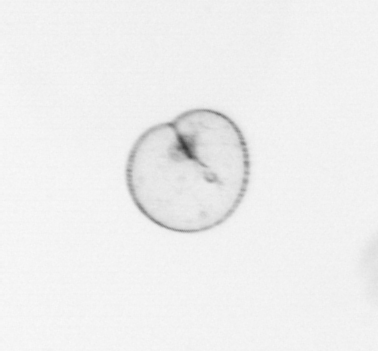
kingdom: Chromista
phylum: Myzozoa
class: Dinophyceae
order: Noctilucales
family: Noctilucaceae
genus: Noctiluca
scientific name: Noctiluca scintillans
